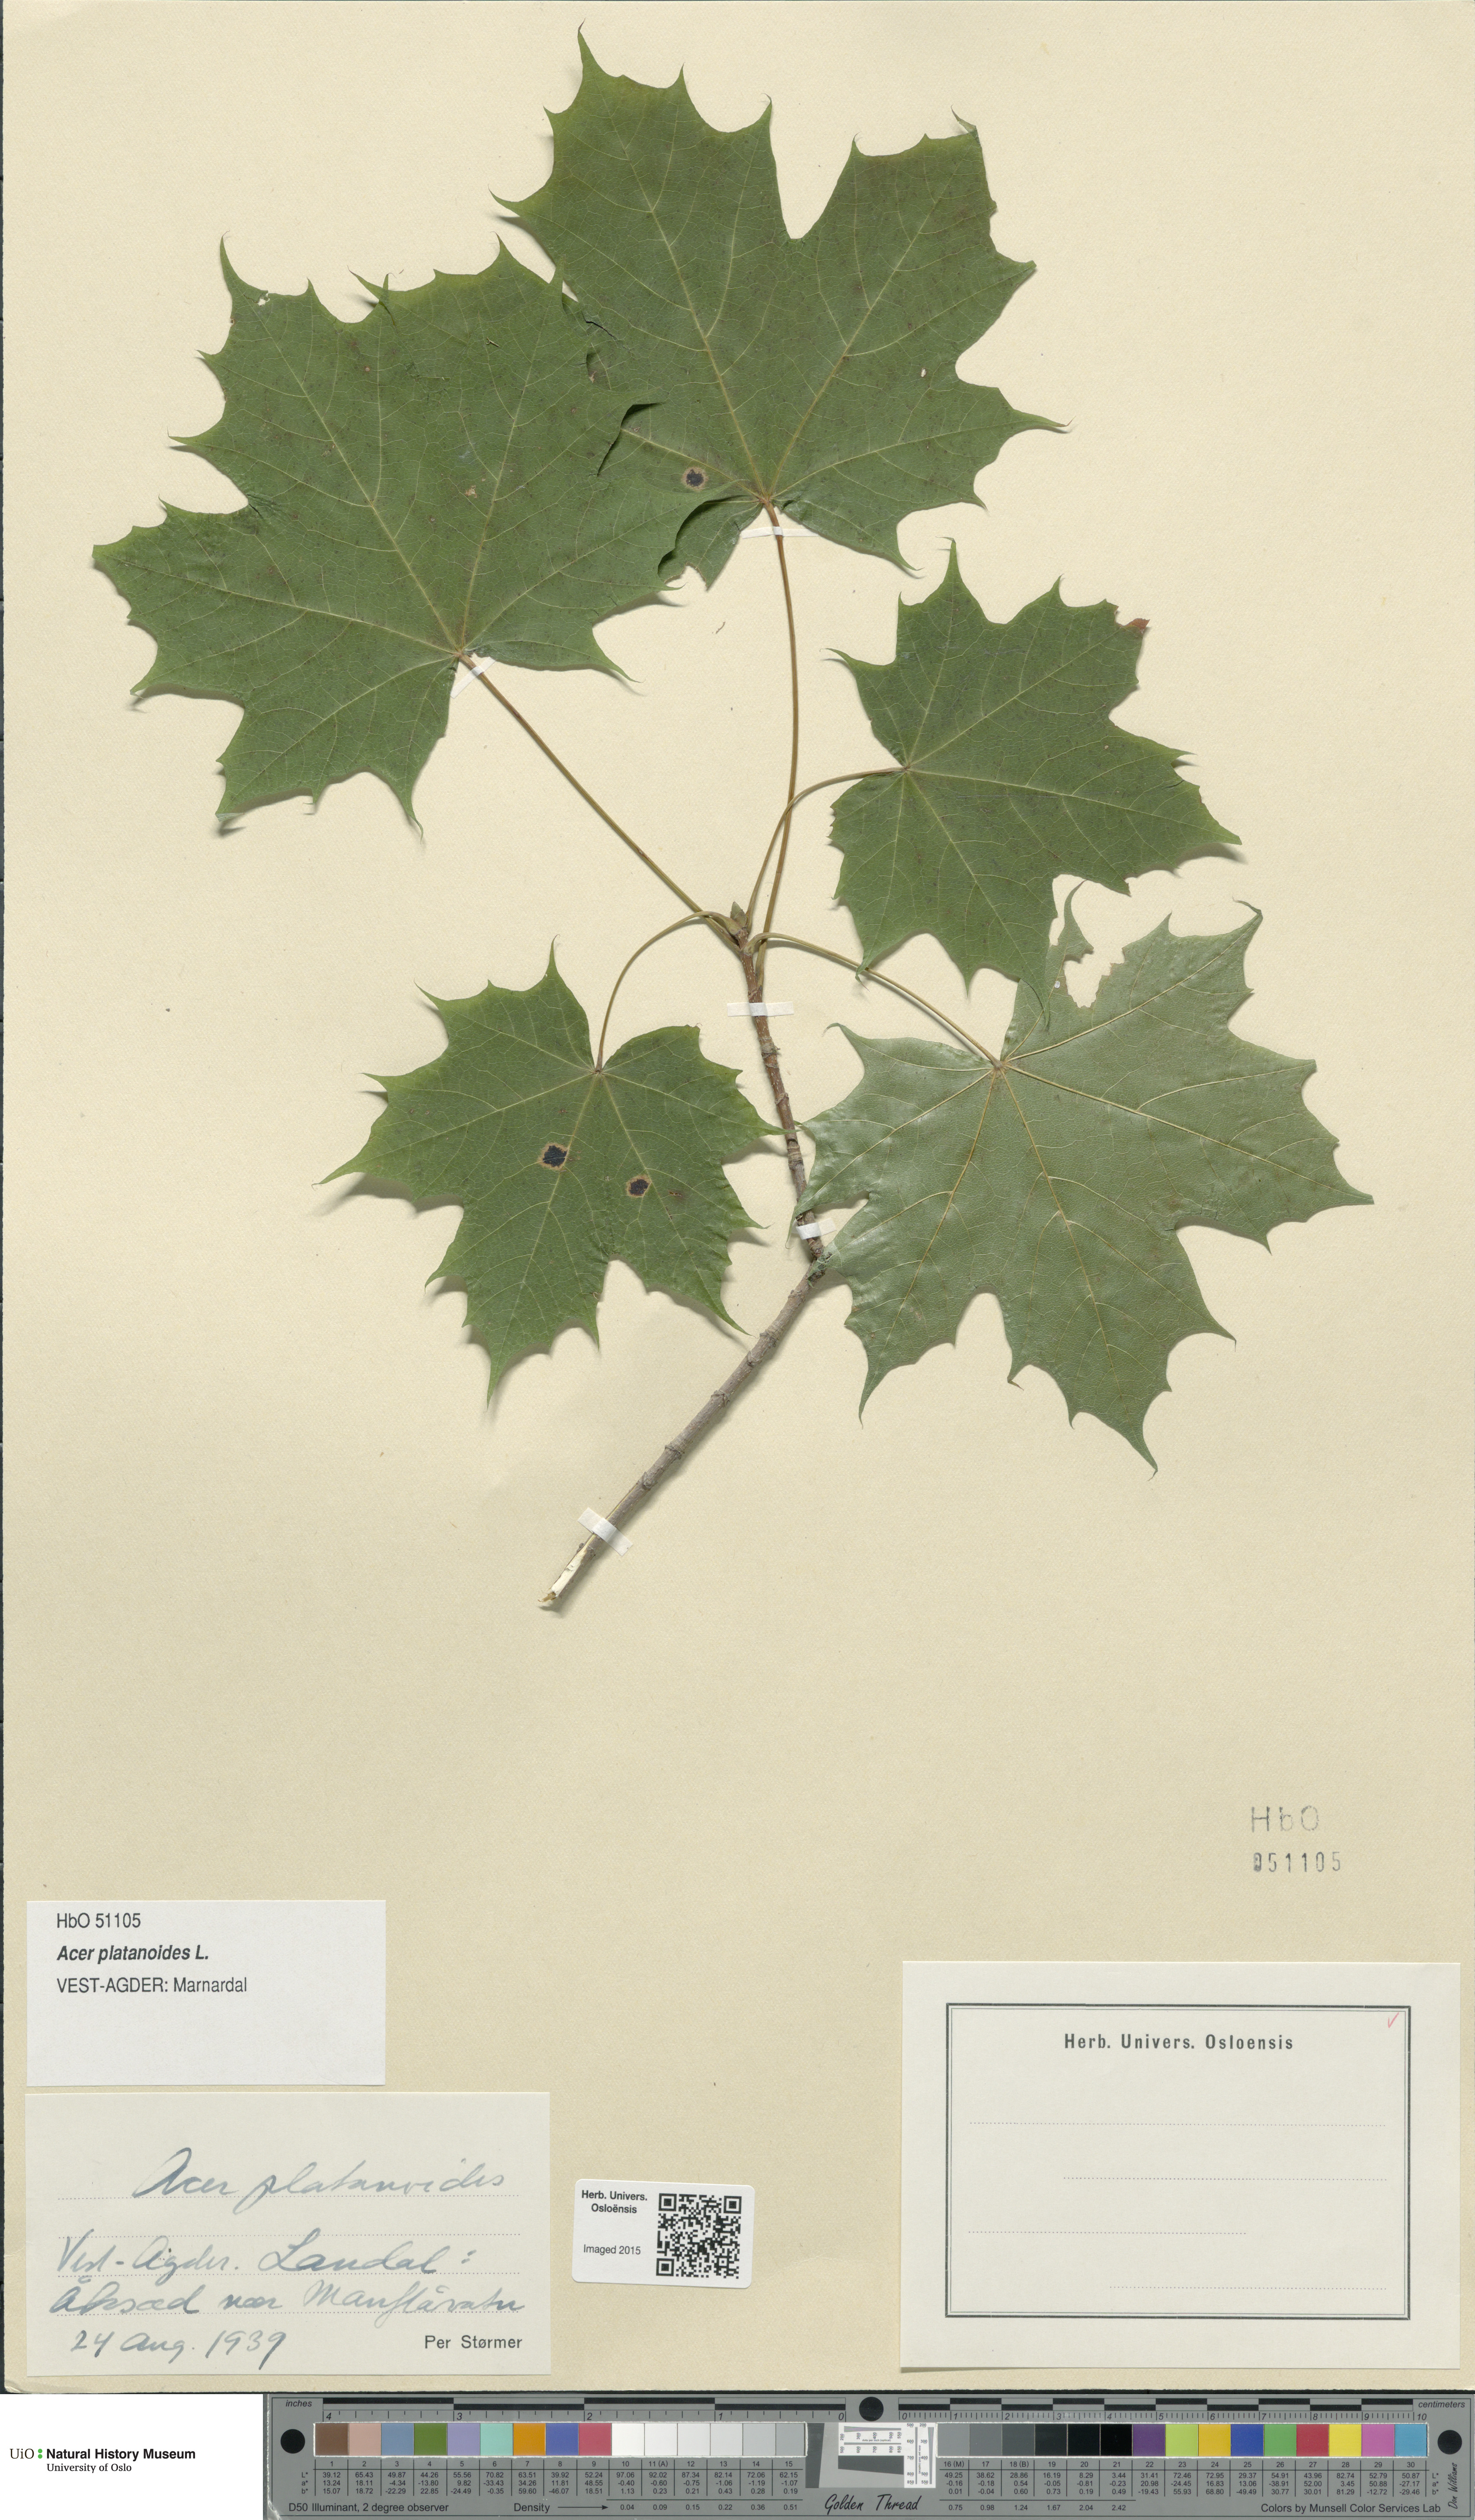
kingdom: Plantae
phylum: Tracheophyta
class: Magnoliopsida
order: Sapindales
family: Sapindaceae
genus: Acer
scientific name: Acer platanoides
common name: Norway maple
